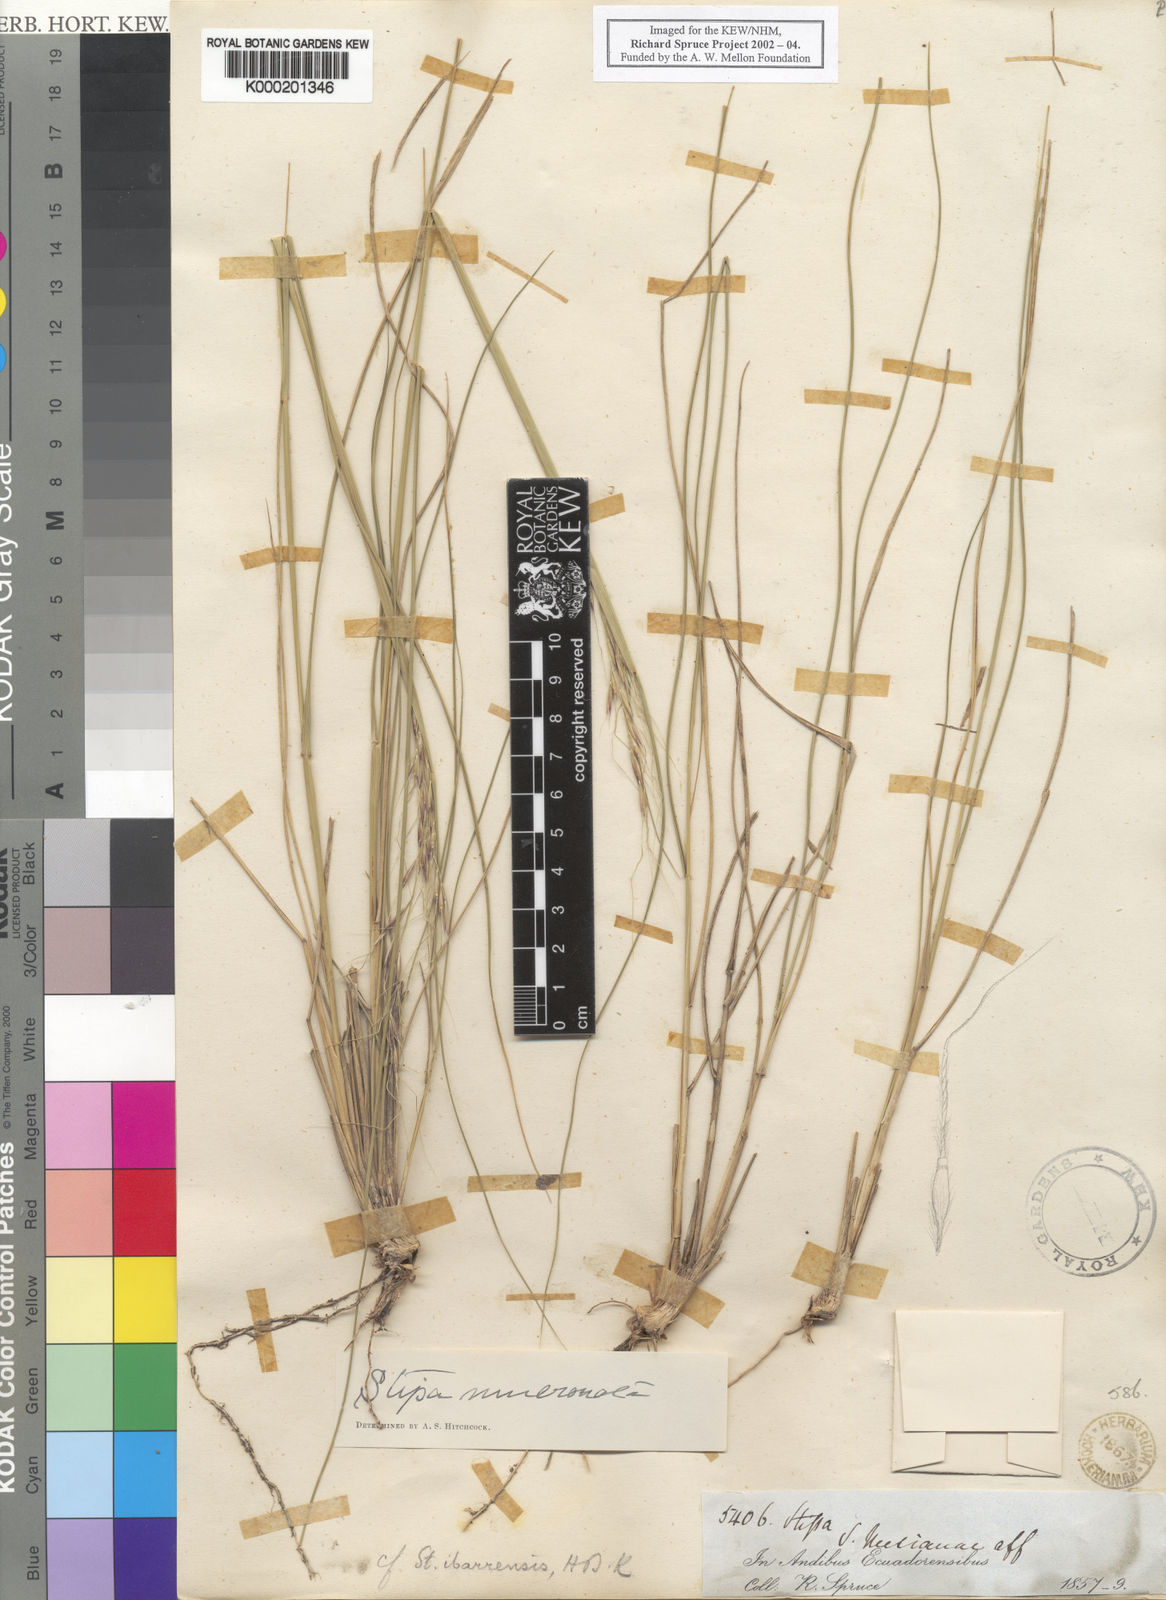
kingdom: Plantae
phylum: Tracheophyta
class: Liliopsida
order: Poales
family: Poaceae
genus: Nassella
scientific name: Nassella mucronata
